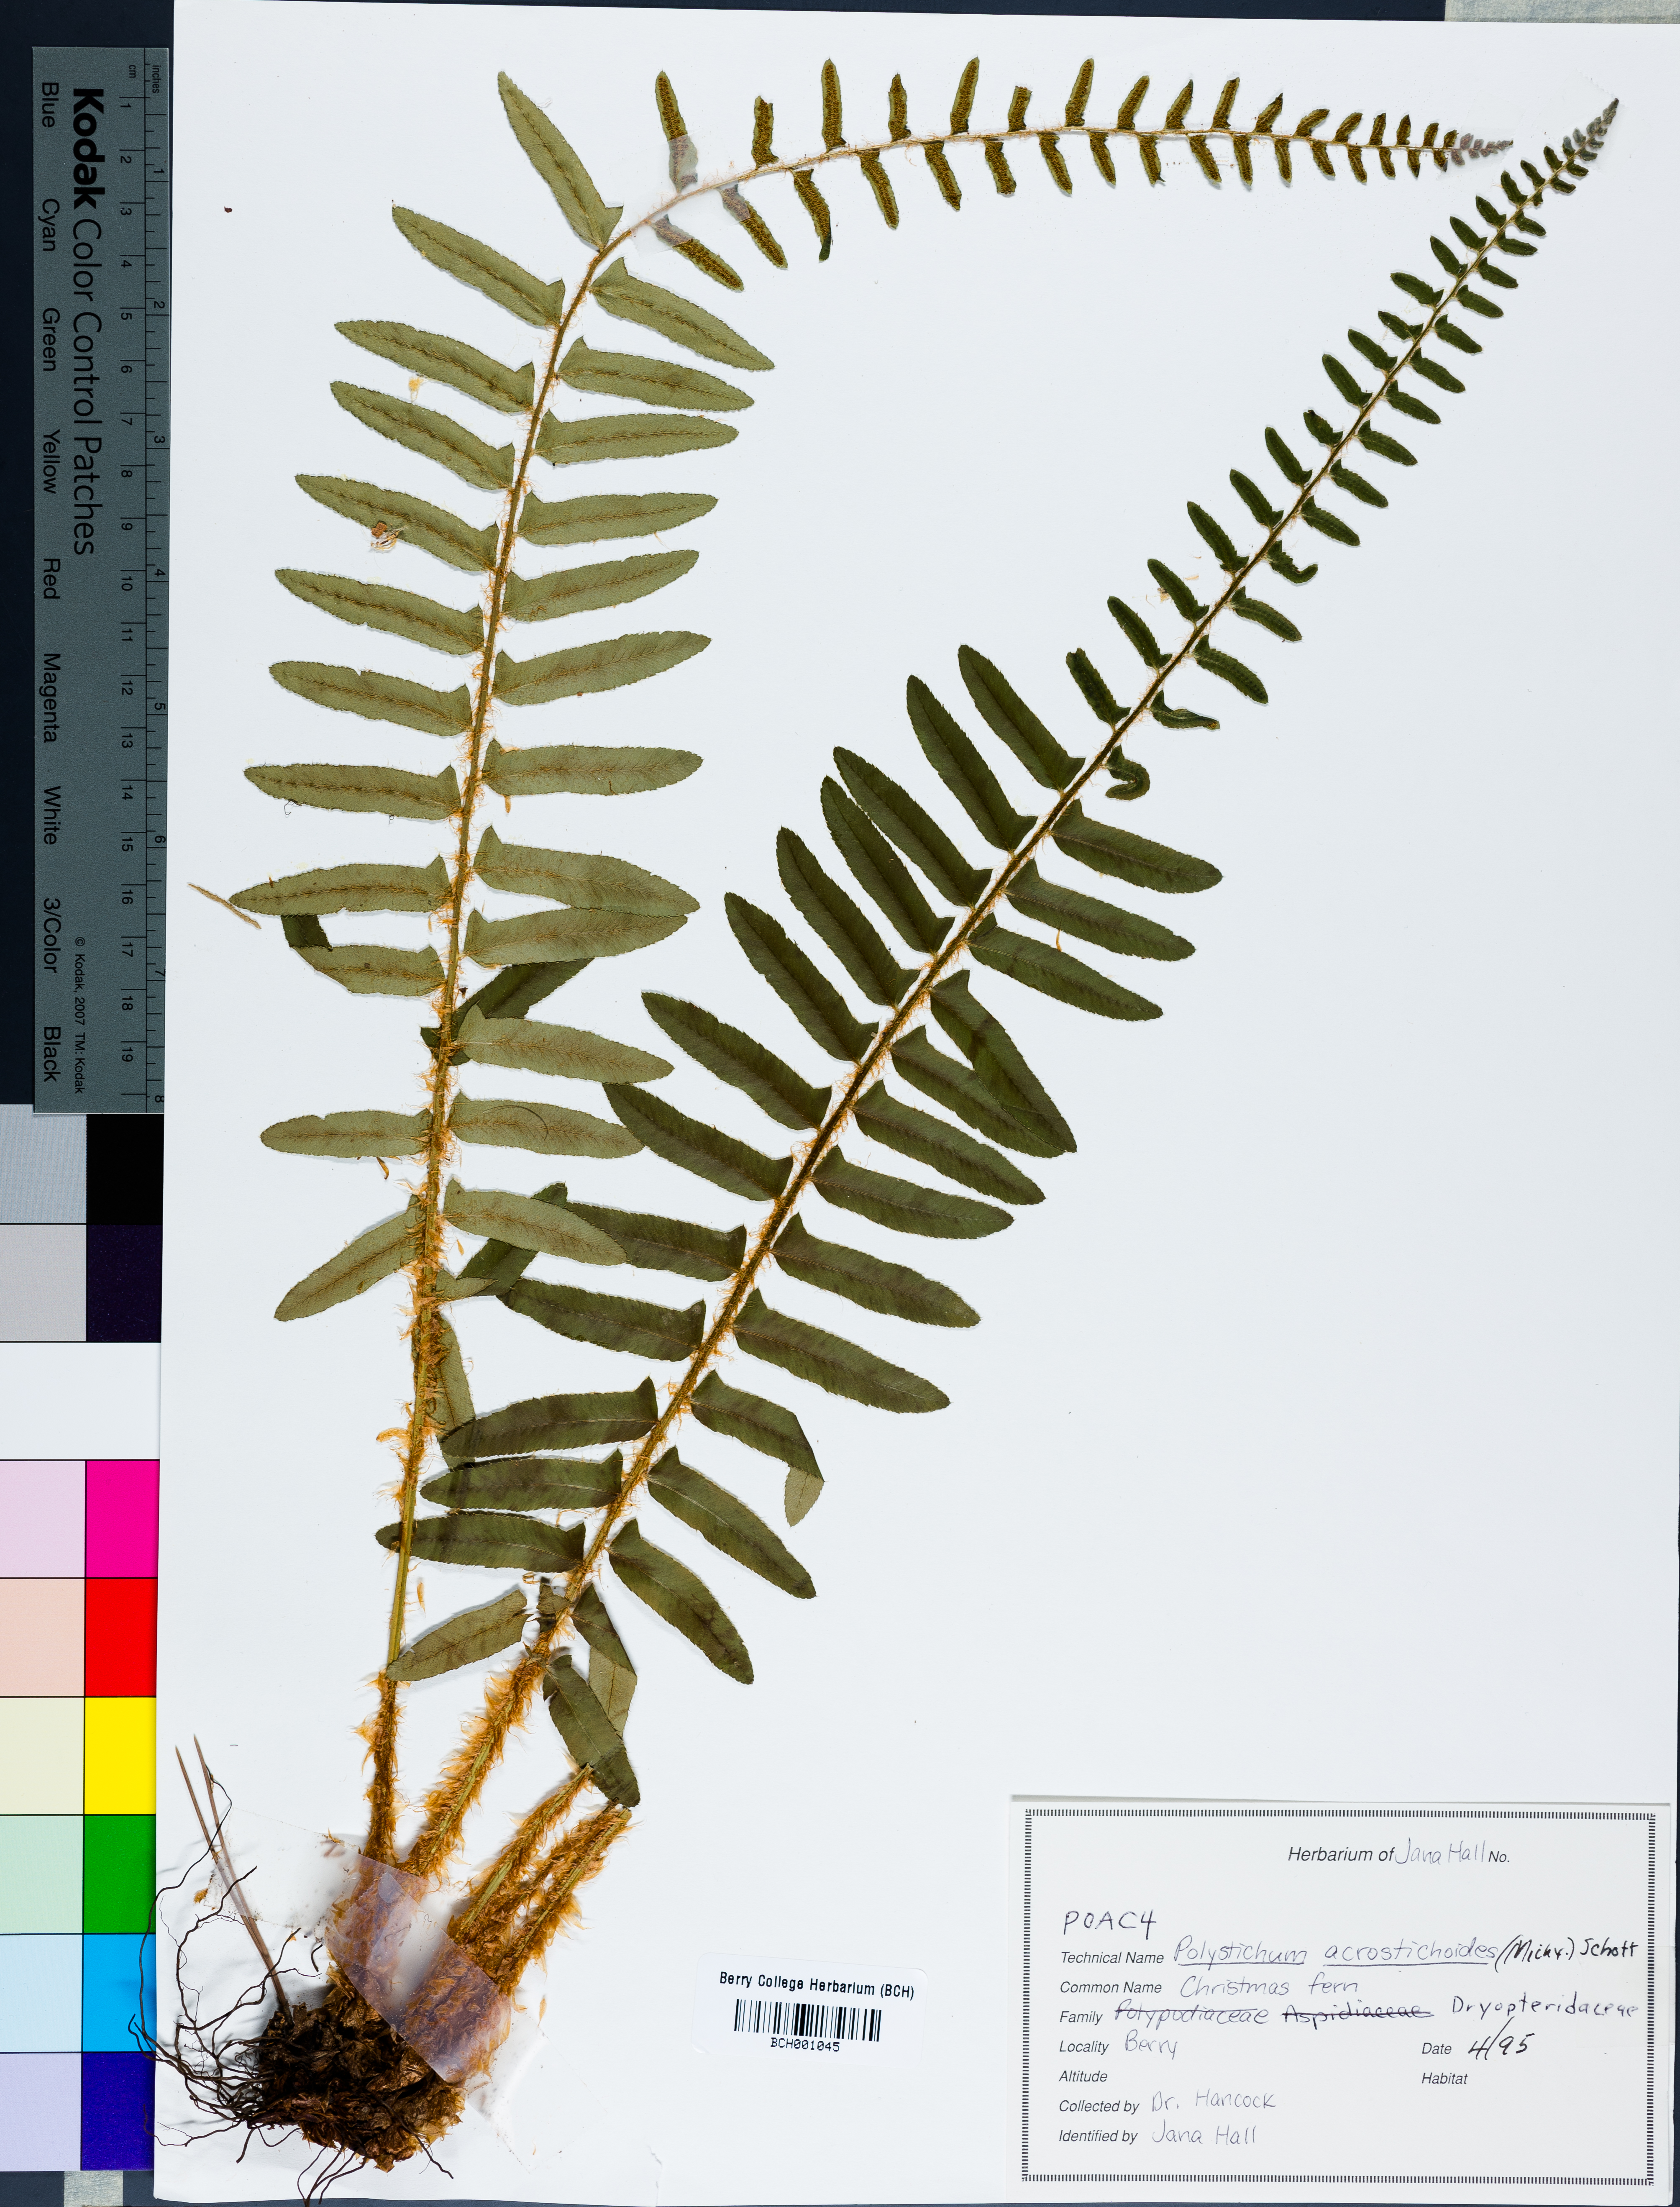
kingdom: Plantae
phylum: Tracheophyta
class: Polypodiopsida
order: Polypodiales
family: Dryopteridaceae
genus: Polystichum
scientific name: Polystichum acrostichoides
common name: Christmas fern
